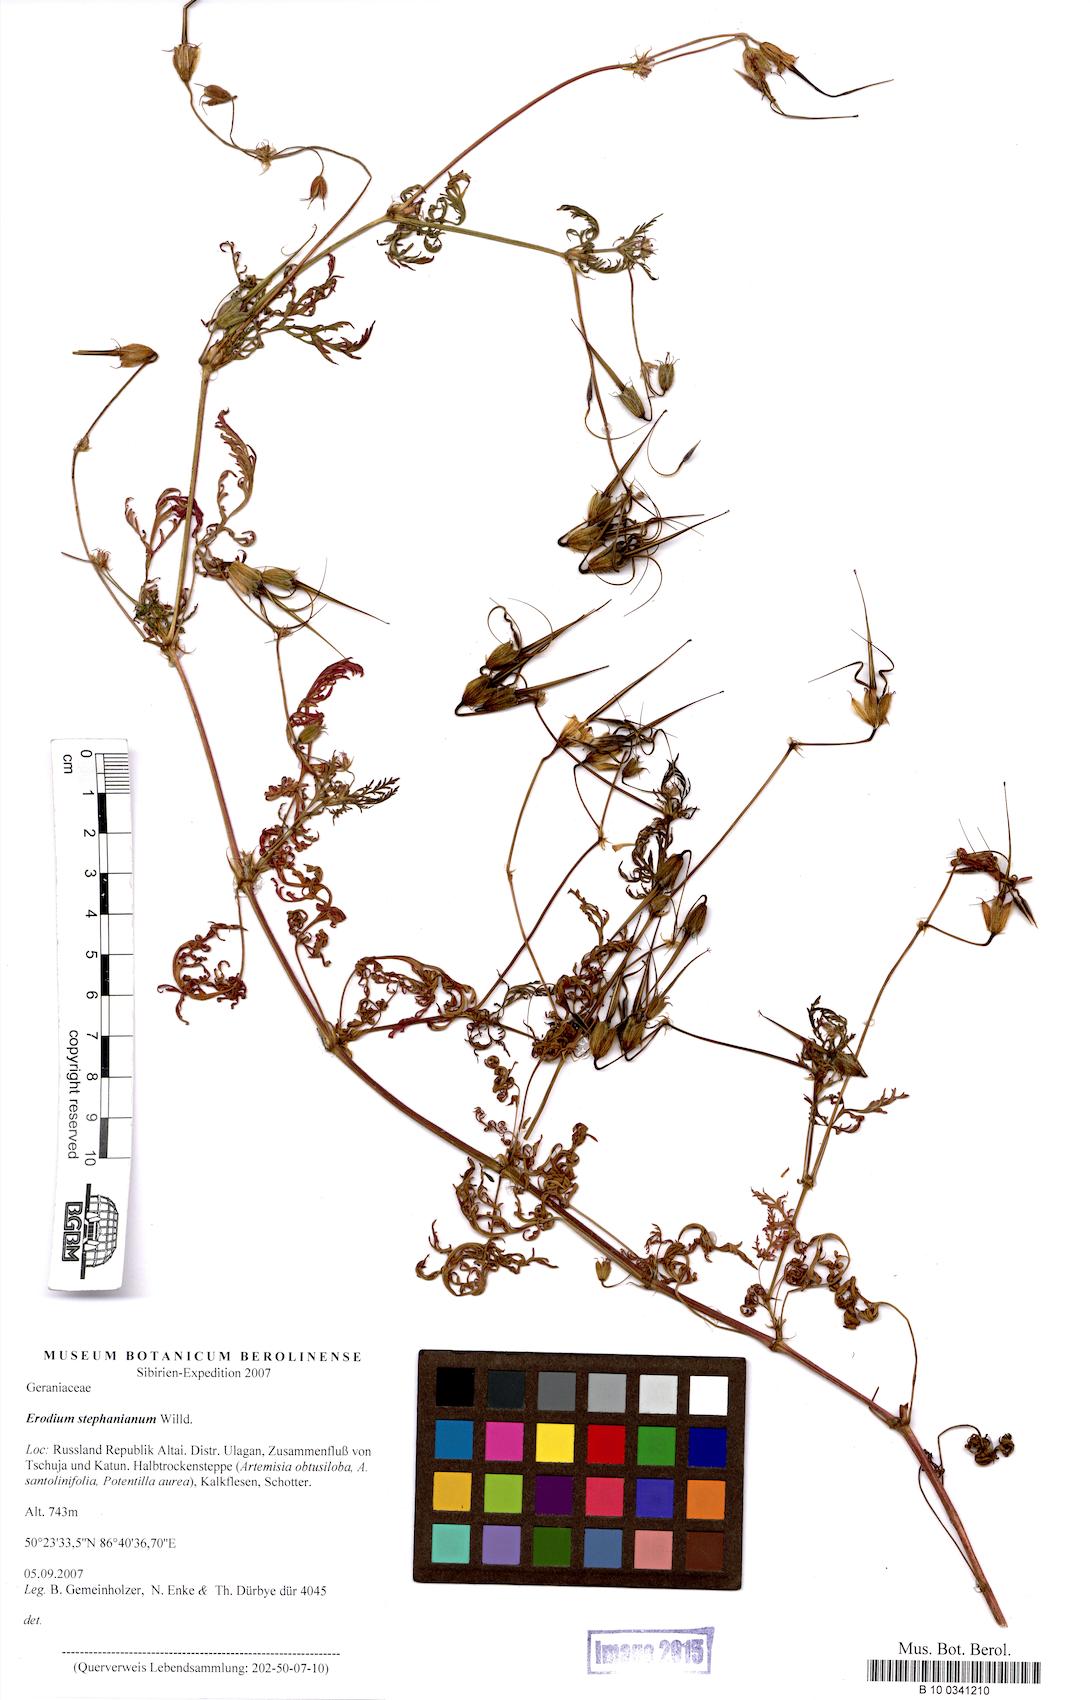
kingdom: Plantae
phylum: Tracheophyta
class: Magnoliopsida
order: Geraniales
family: Geraniaceae
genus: Erodium
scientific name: Erodium stephanianum
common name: Stephen's stork's bill
